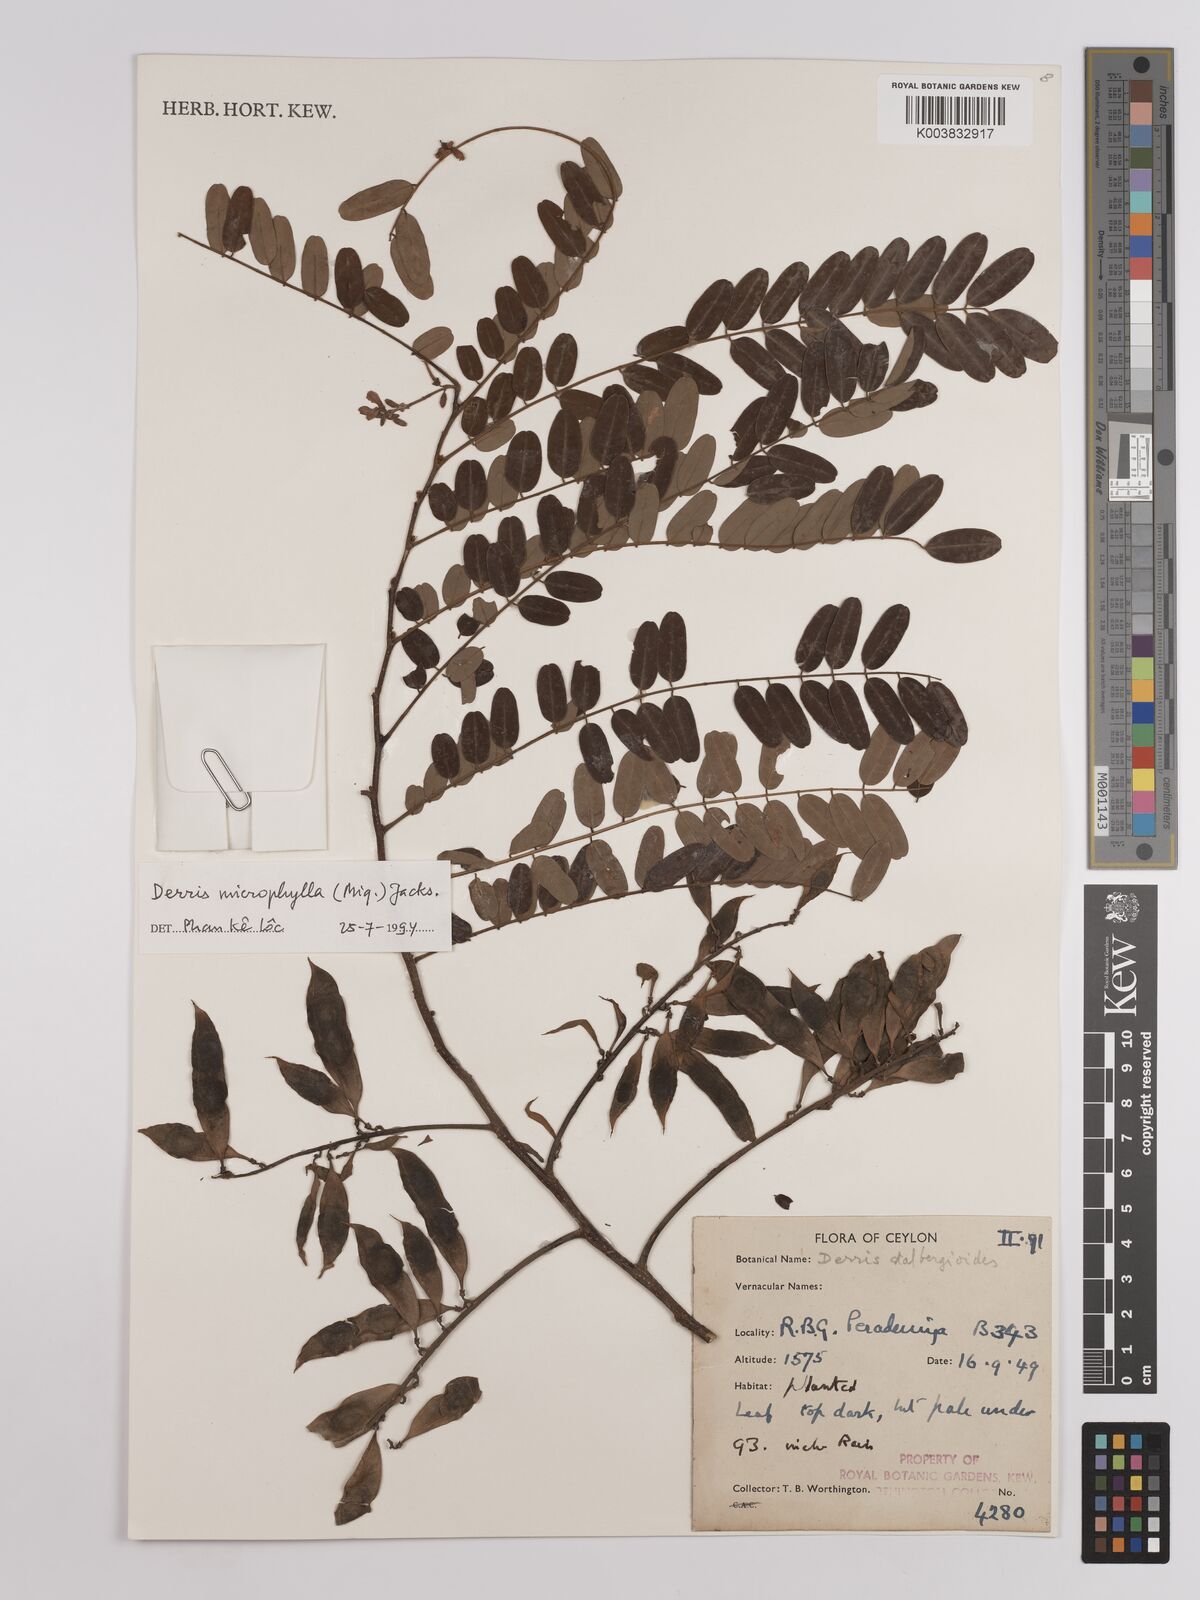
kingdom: Plantae
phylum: Tracheophyta
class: Magnoliopsida
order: Fabales
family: Fabaceae
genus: Brachypterum
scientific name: Brachypterum microphyllum
